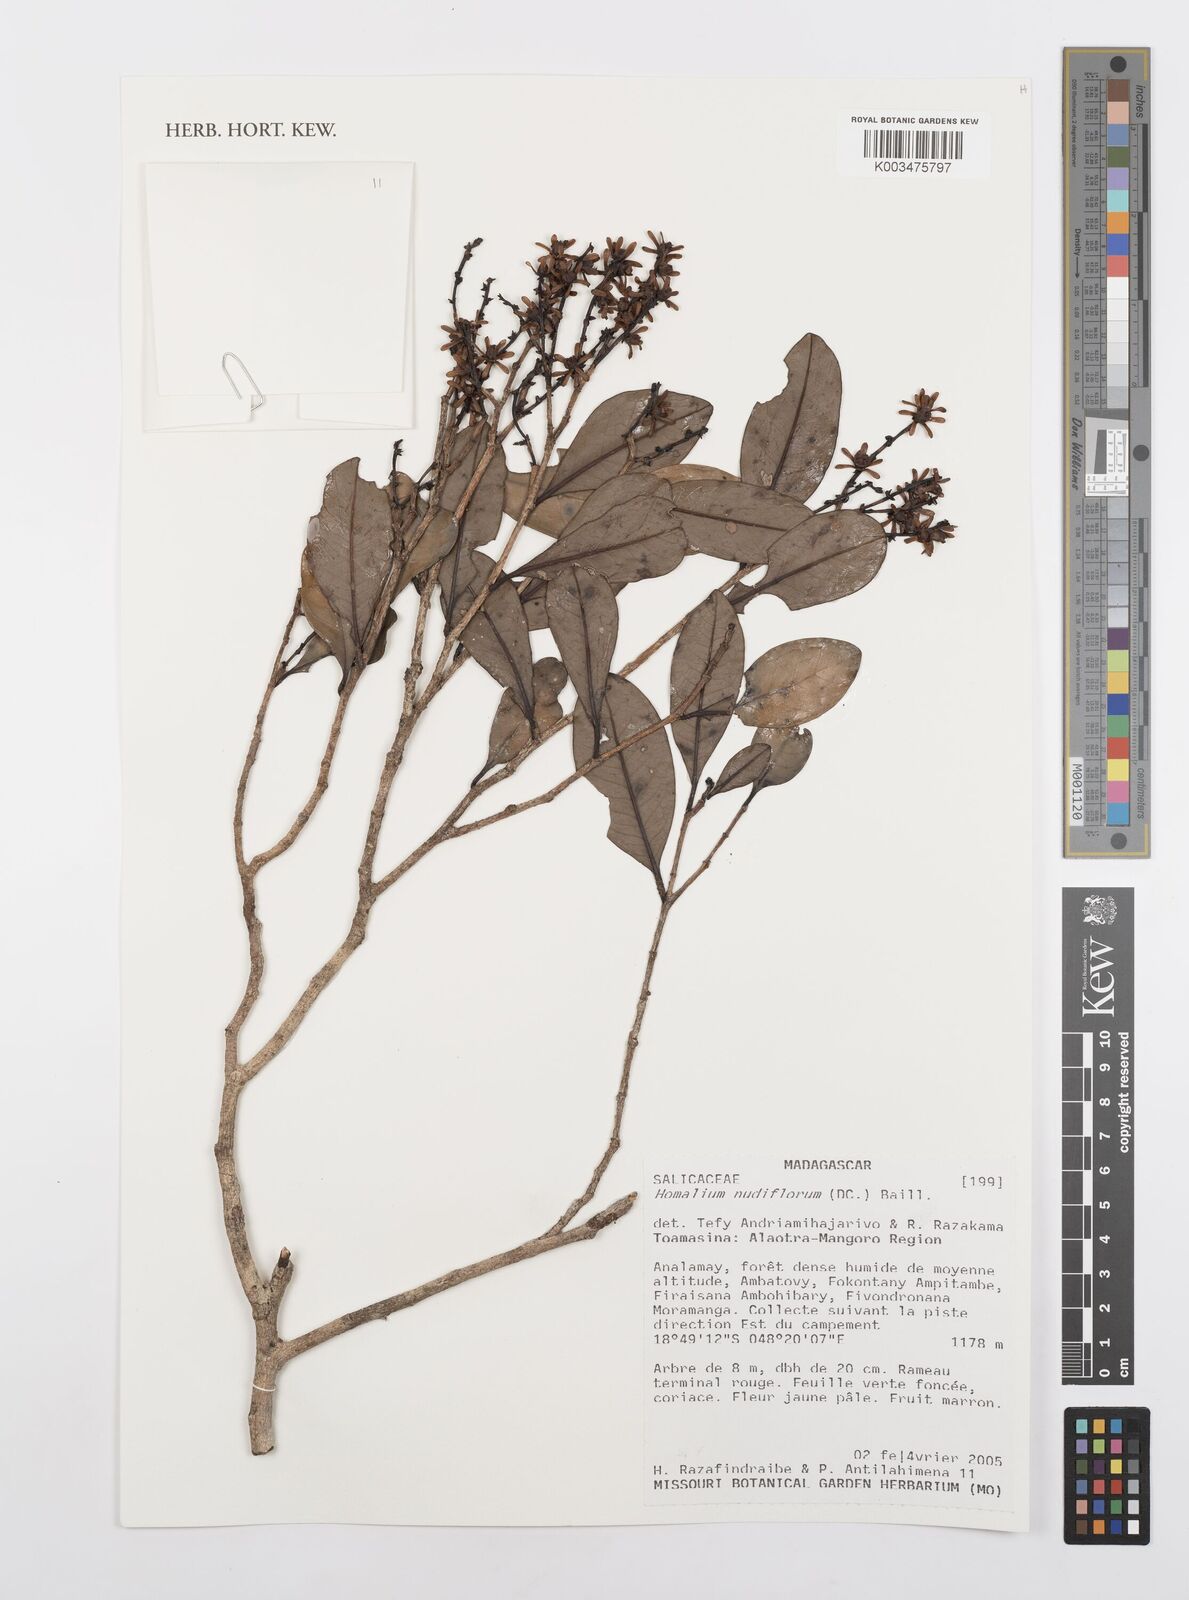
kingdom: Plantae
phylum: Tracheophyta
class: Magnoliopsida
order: Malpighiales
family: Salicaceae
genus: Homalium
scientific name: Homalium nudiflorum
